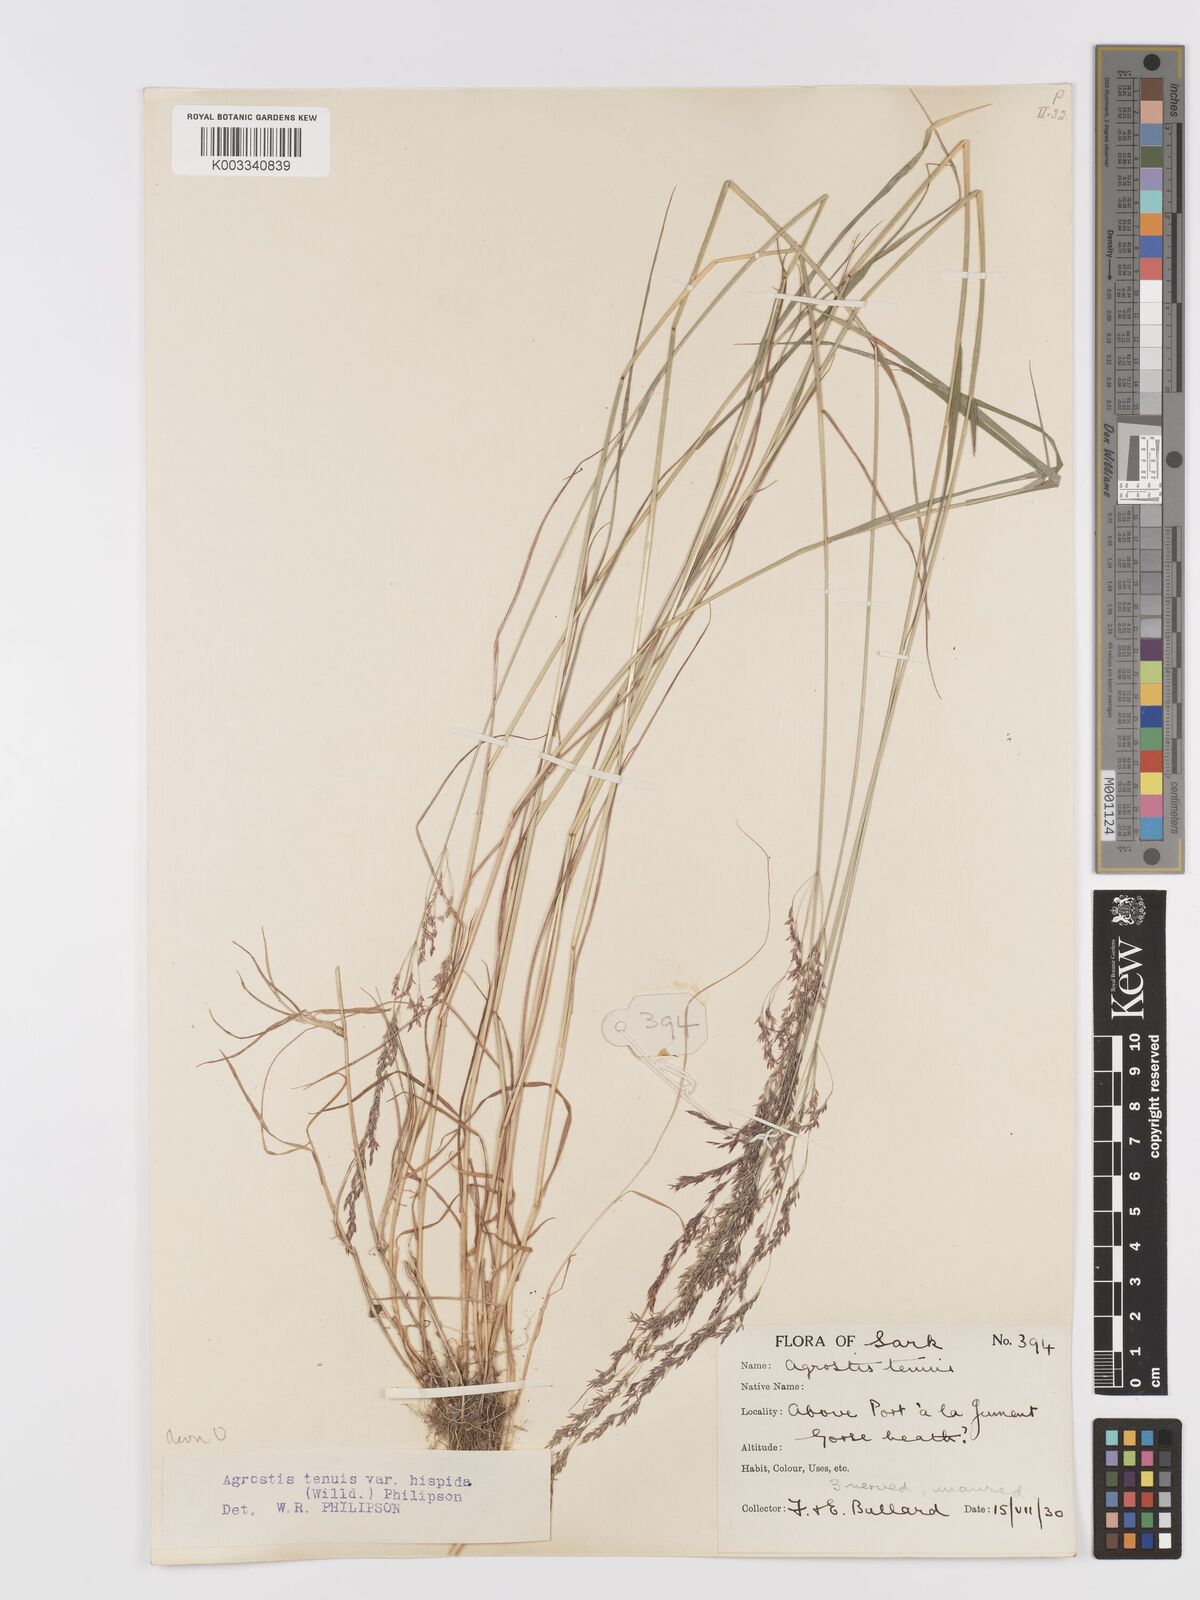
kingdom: Plantae
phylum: Tracheophyta
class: Liliopsida
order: Poales
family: Poaceae
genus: Agrostis
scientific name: Agrostis capillaris
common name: Colonial bentgrass
